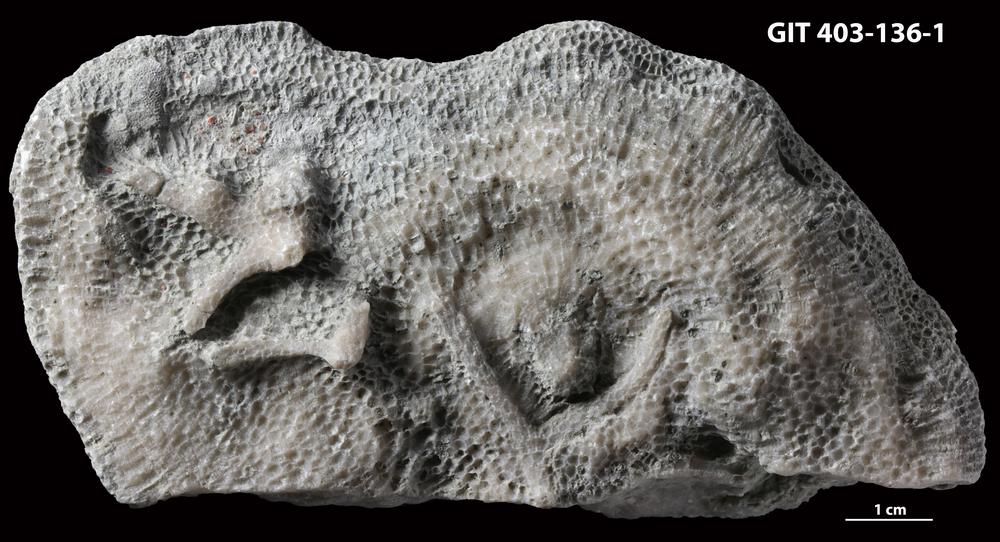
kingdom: Animalia
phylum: Cnidaria
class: Anthozoa
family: Favositidae
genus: Paleofavosites
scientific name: Paleofavosites
